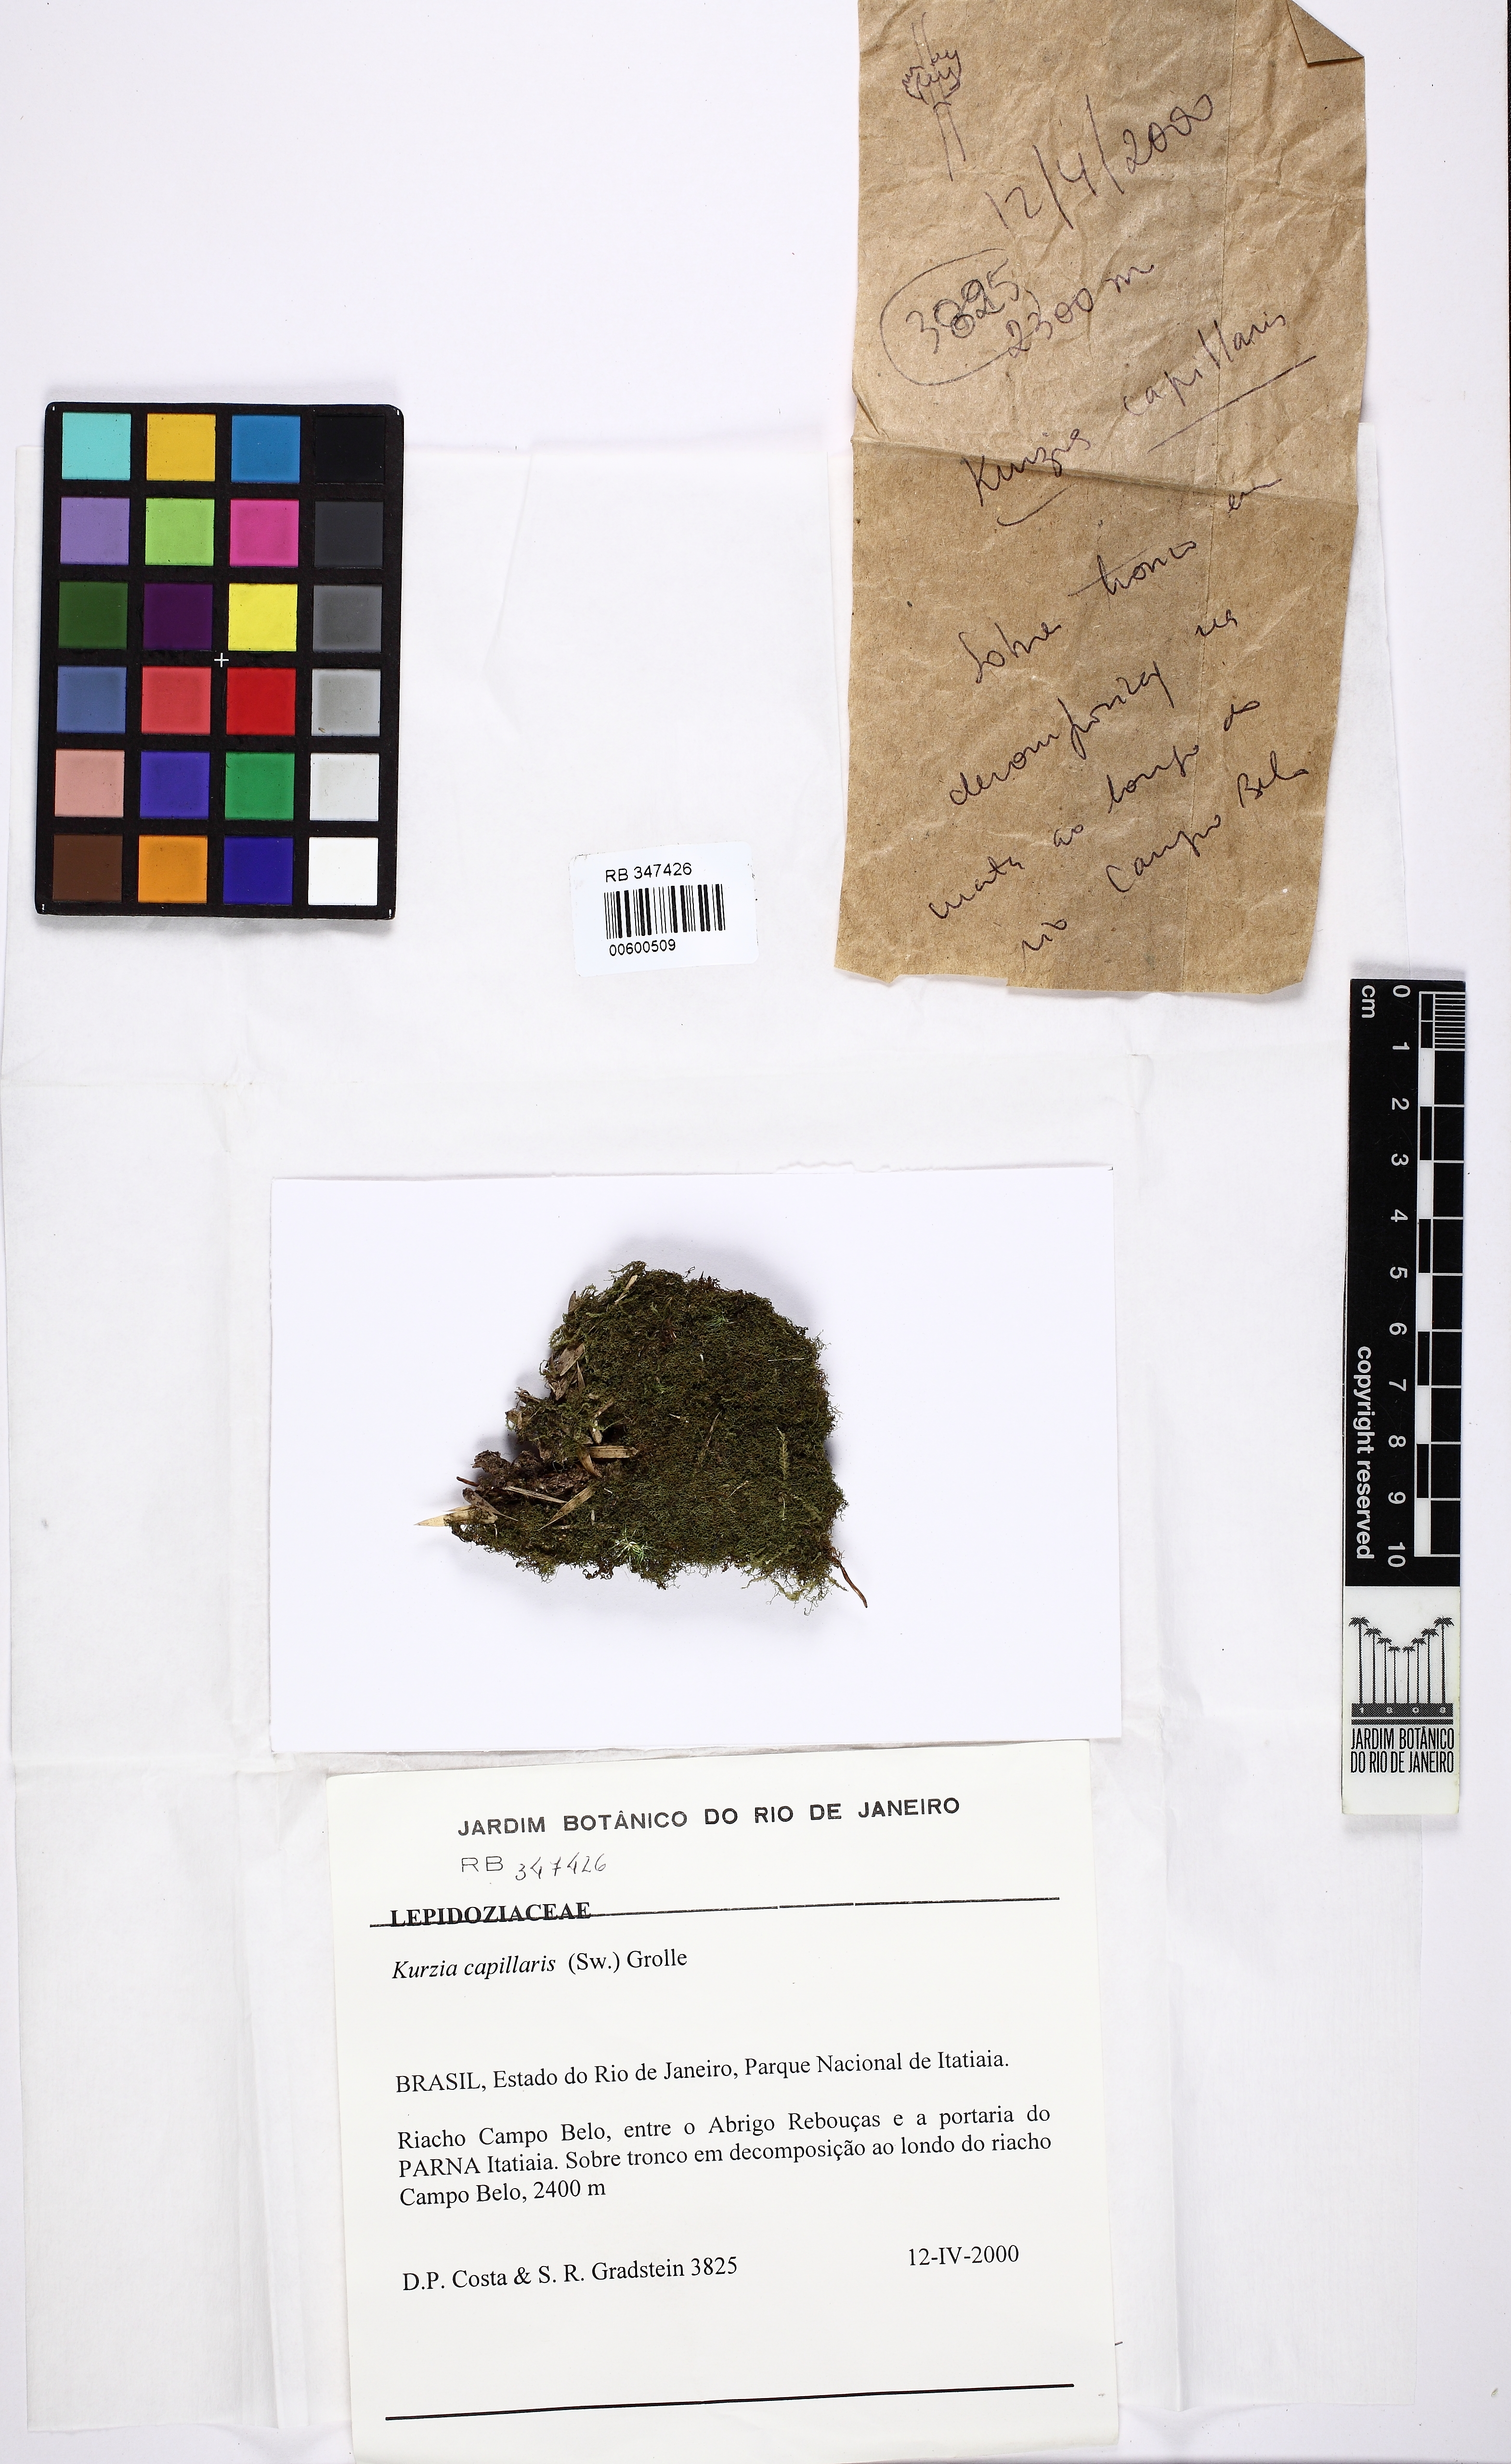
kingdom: Plantae
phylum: Marchantiophyta
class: Jungermanniopsida
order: Jungermanniales
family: Lepidoziaceae
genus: Kurzia
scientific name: Kurzia capillaris
